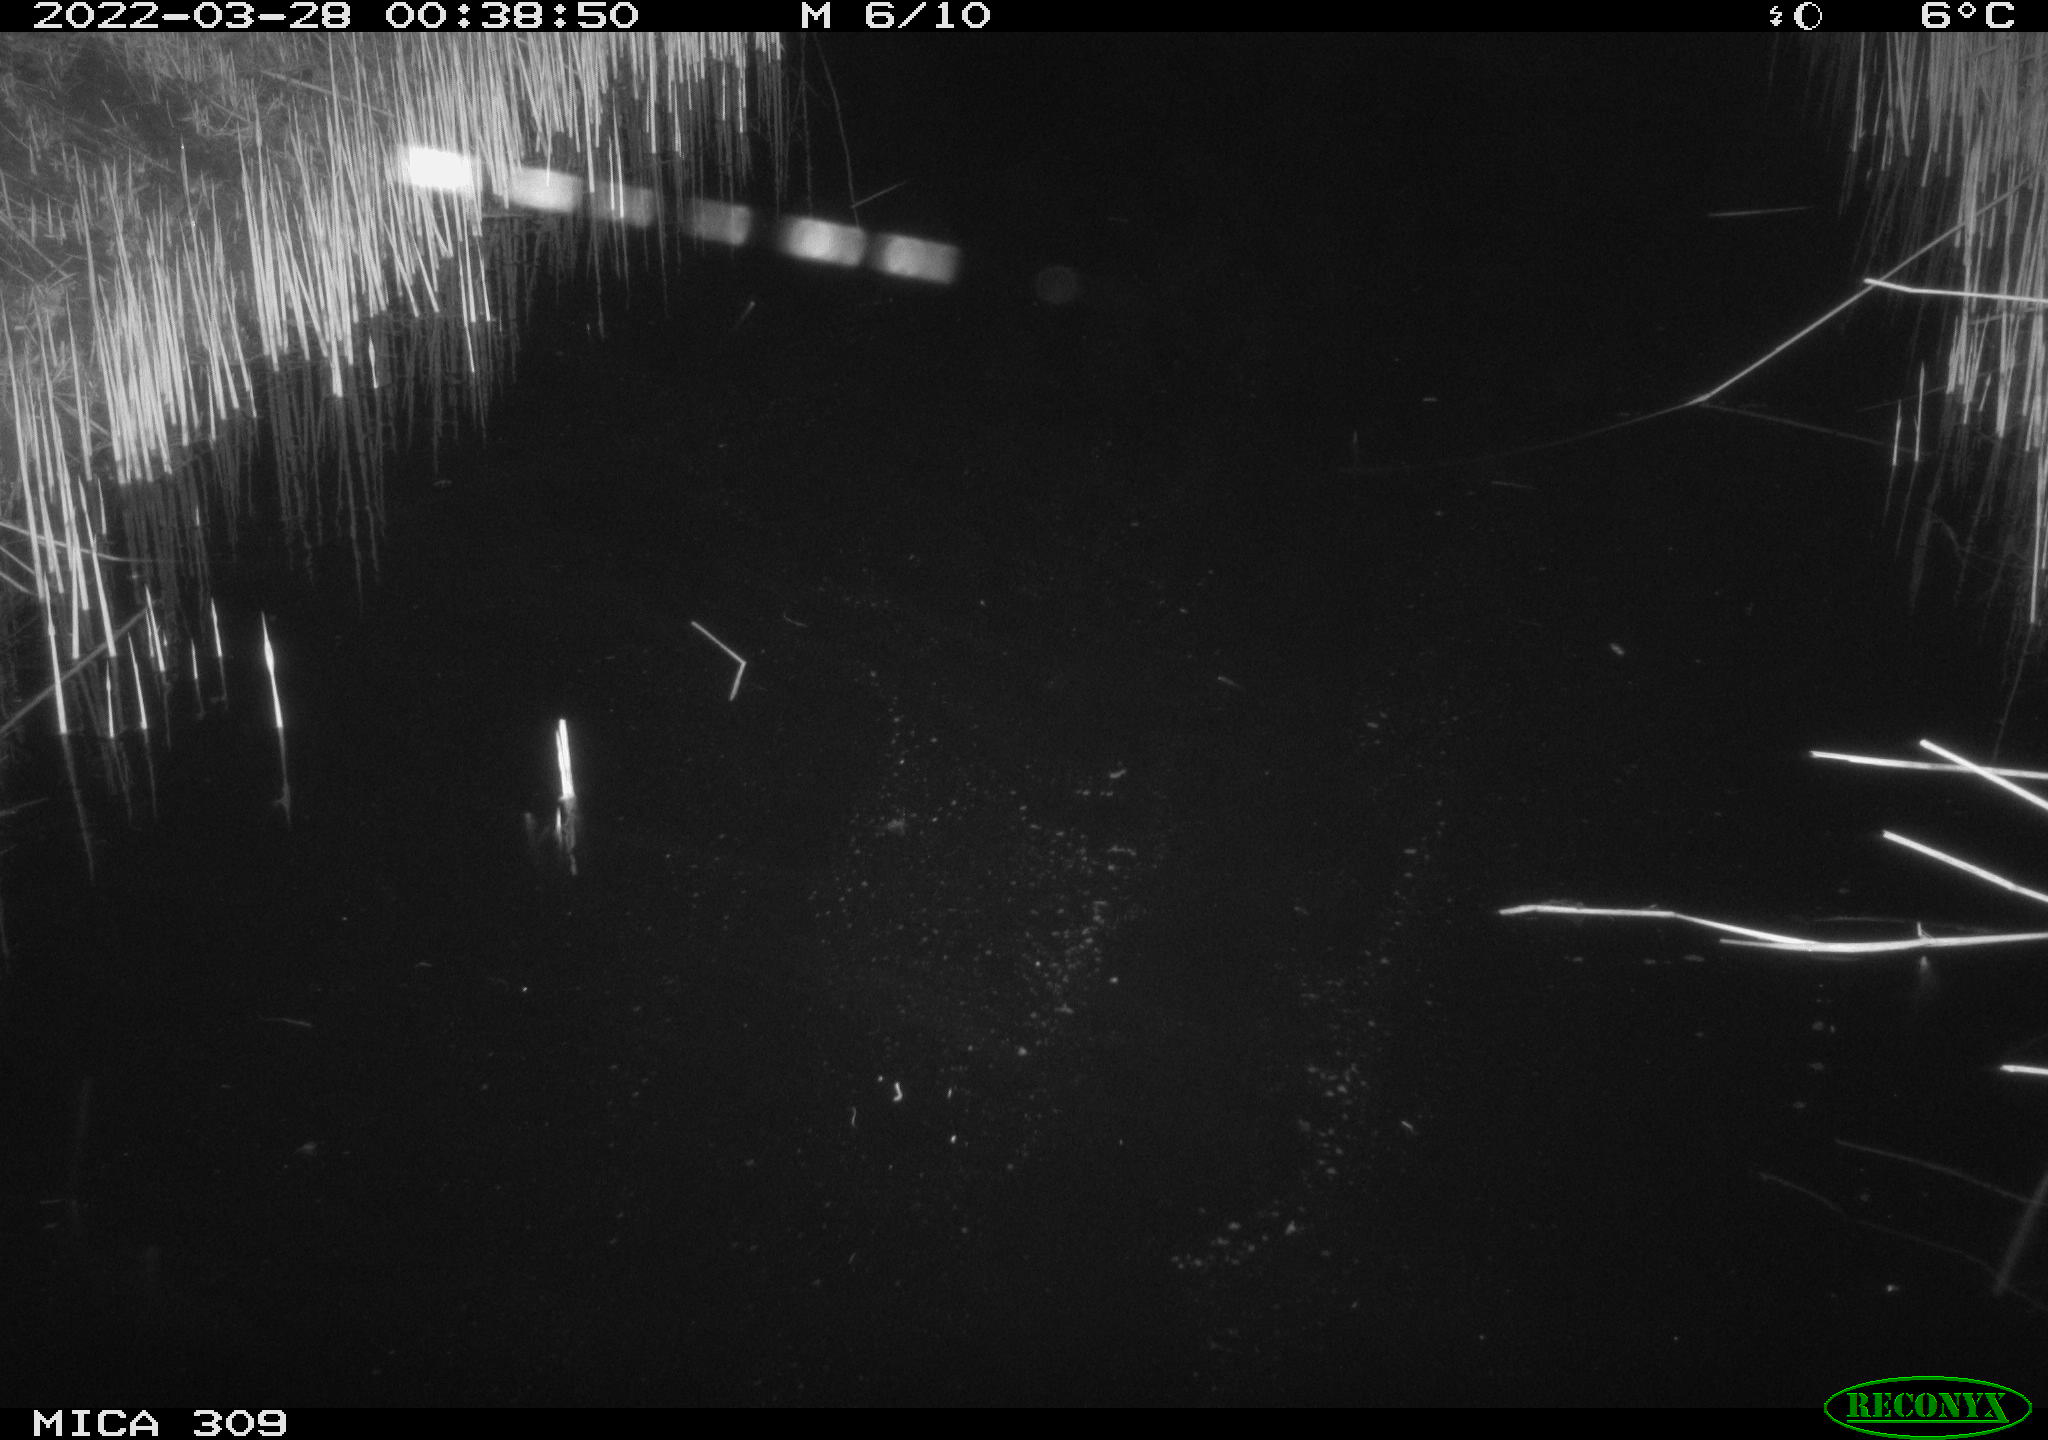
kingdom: Animalia
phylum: Chordata
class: Aves
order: Anseriformes
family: Anatidae
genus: Anas
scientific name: Anas platyrhynchos
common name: Mallard
